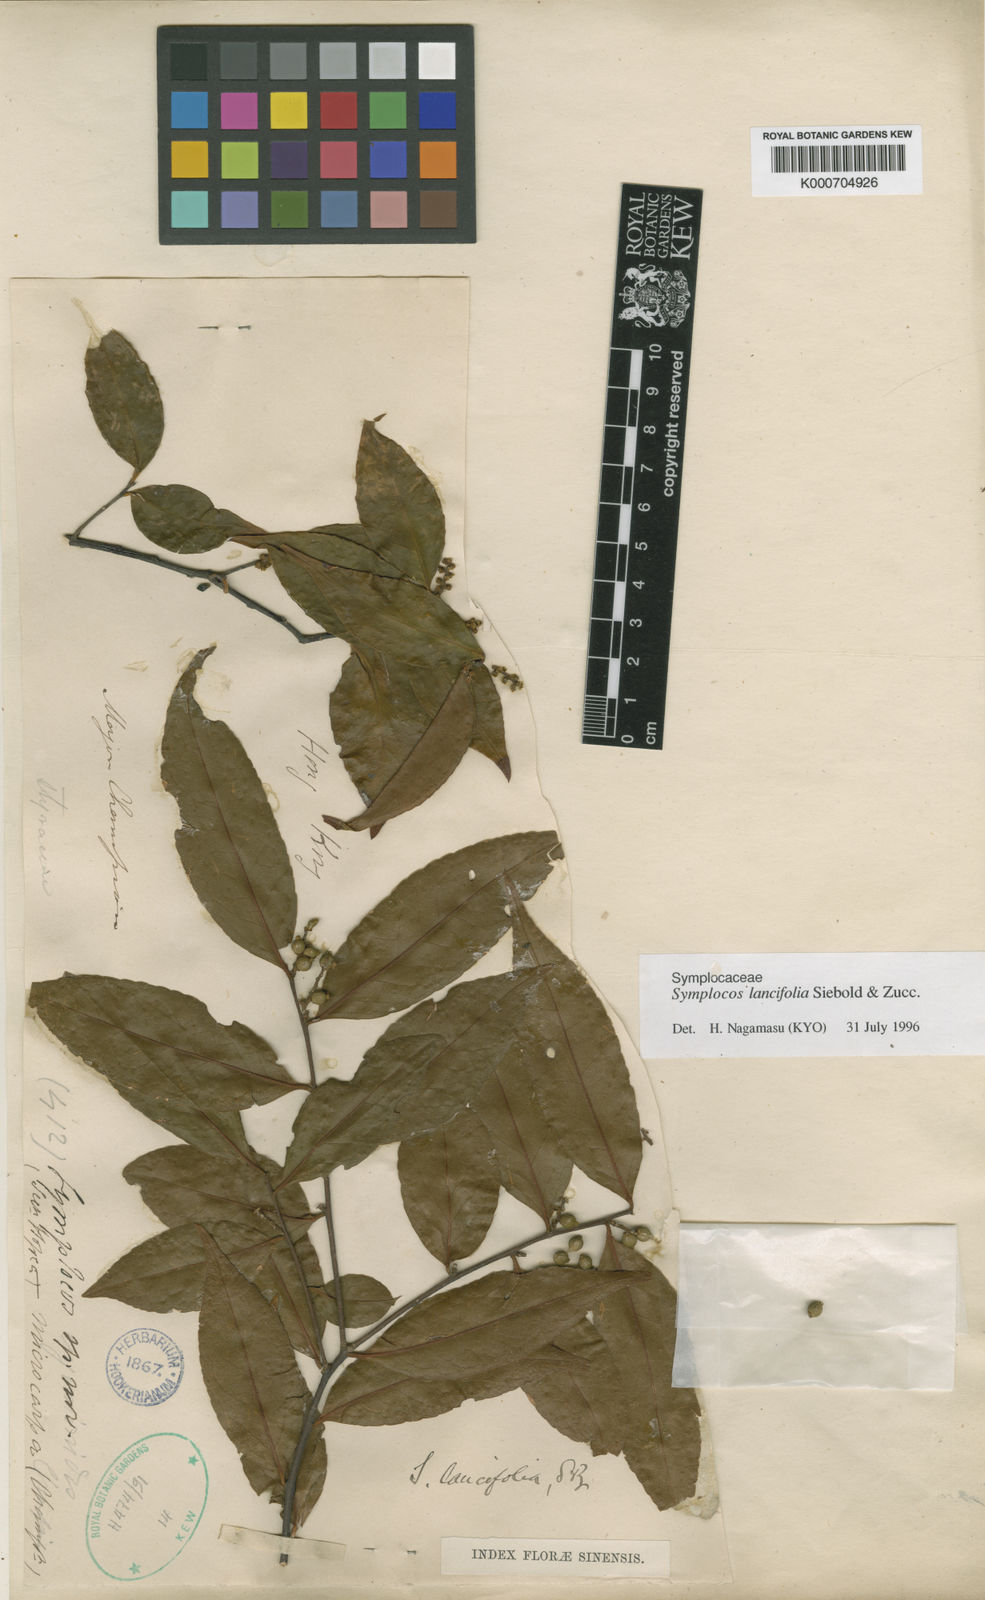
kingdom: Plantae
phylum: Tracheophyta
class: Magnoliopsida
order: Ericales
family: Symplocaceae
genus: Symplocos
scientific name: Symplocos lancifolia
